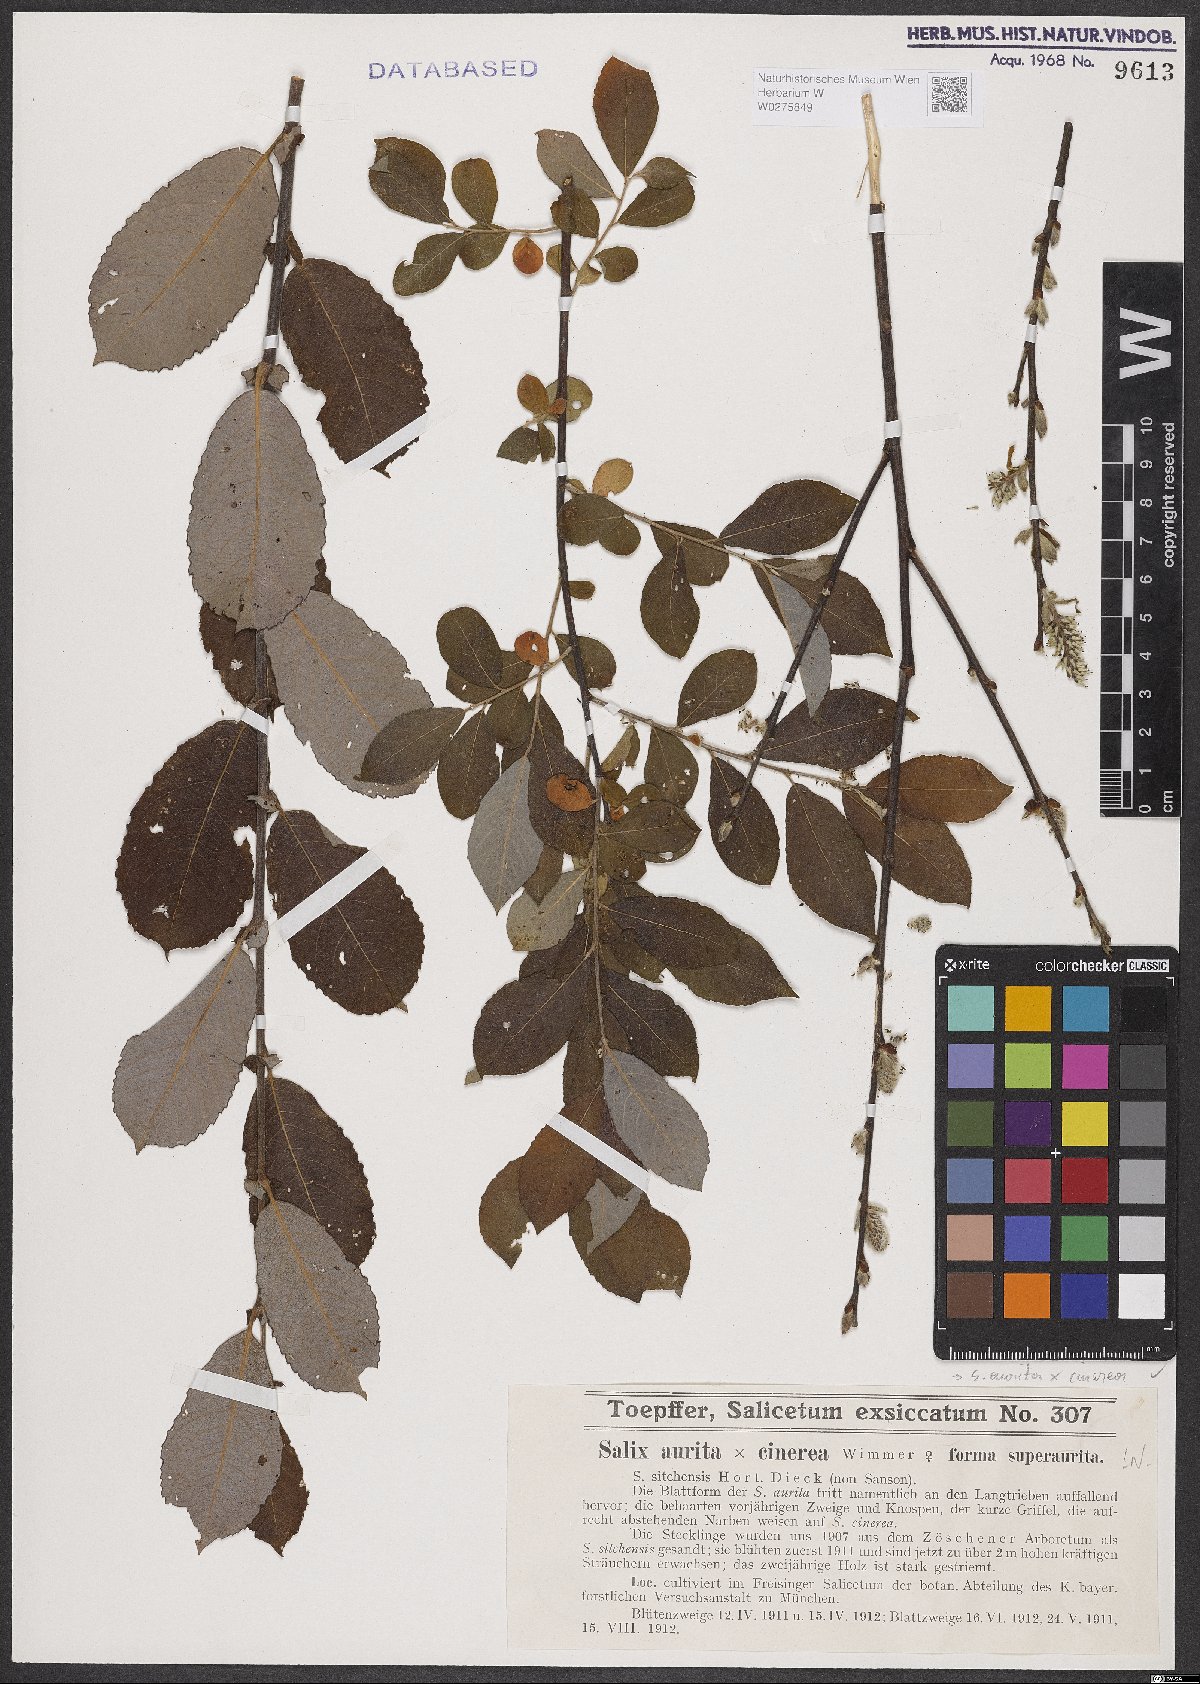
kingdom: Plantae
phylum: Tracheophyta
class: Magnoliopsida
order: Malpighiales
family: Salicaceae
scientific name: Salicaceae
